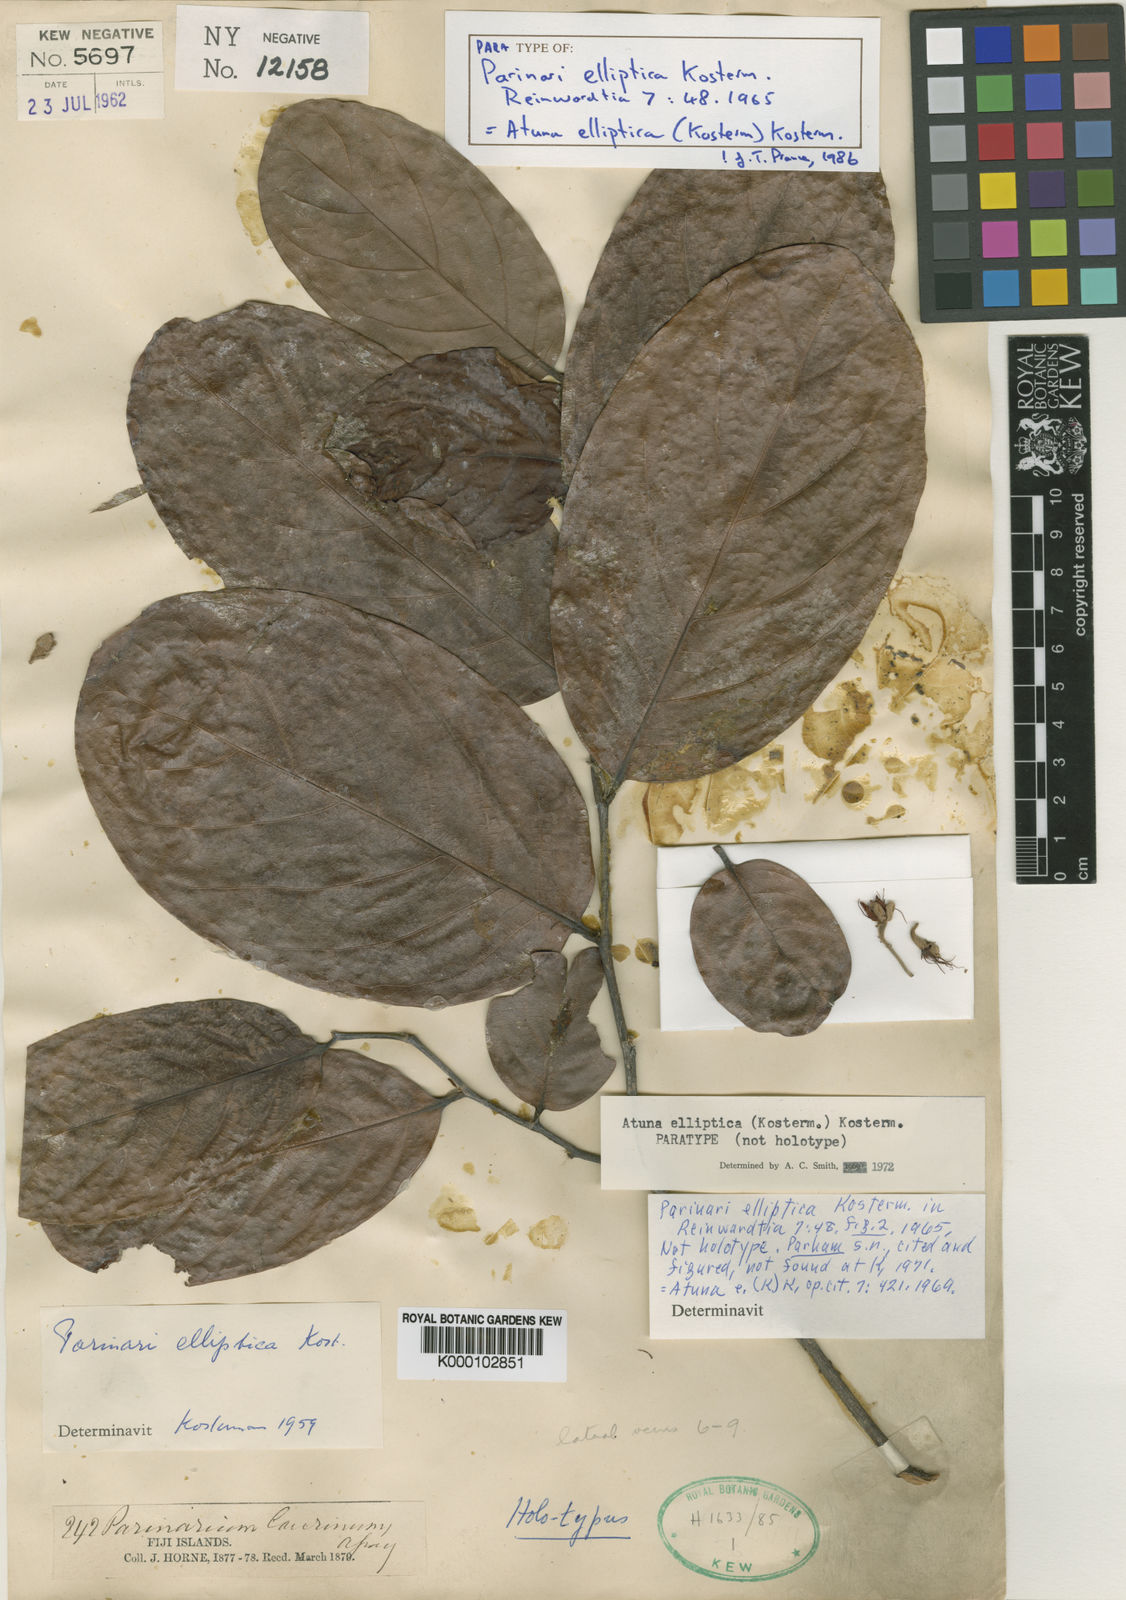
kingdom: Plantae
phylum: Tracheophyta
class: Magnoliopsida
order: Malpighiales
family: Chrysobalanaceae
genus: Atuna
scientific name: Atuna elliptica
